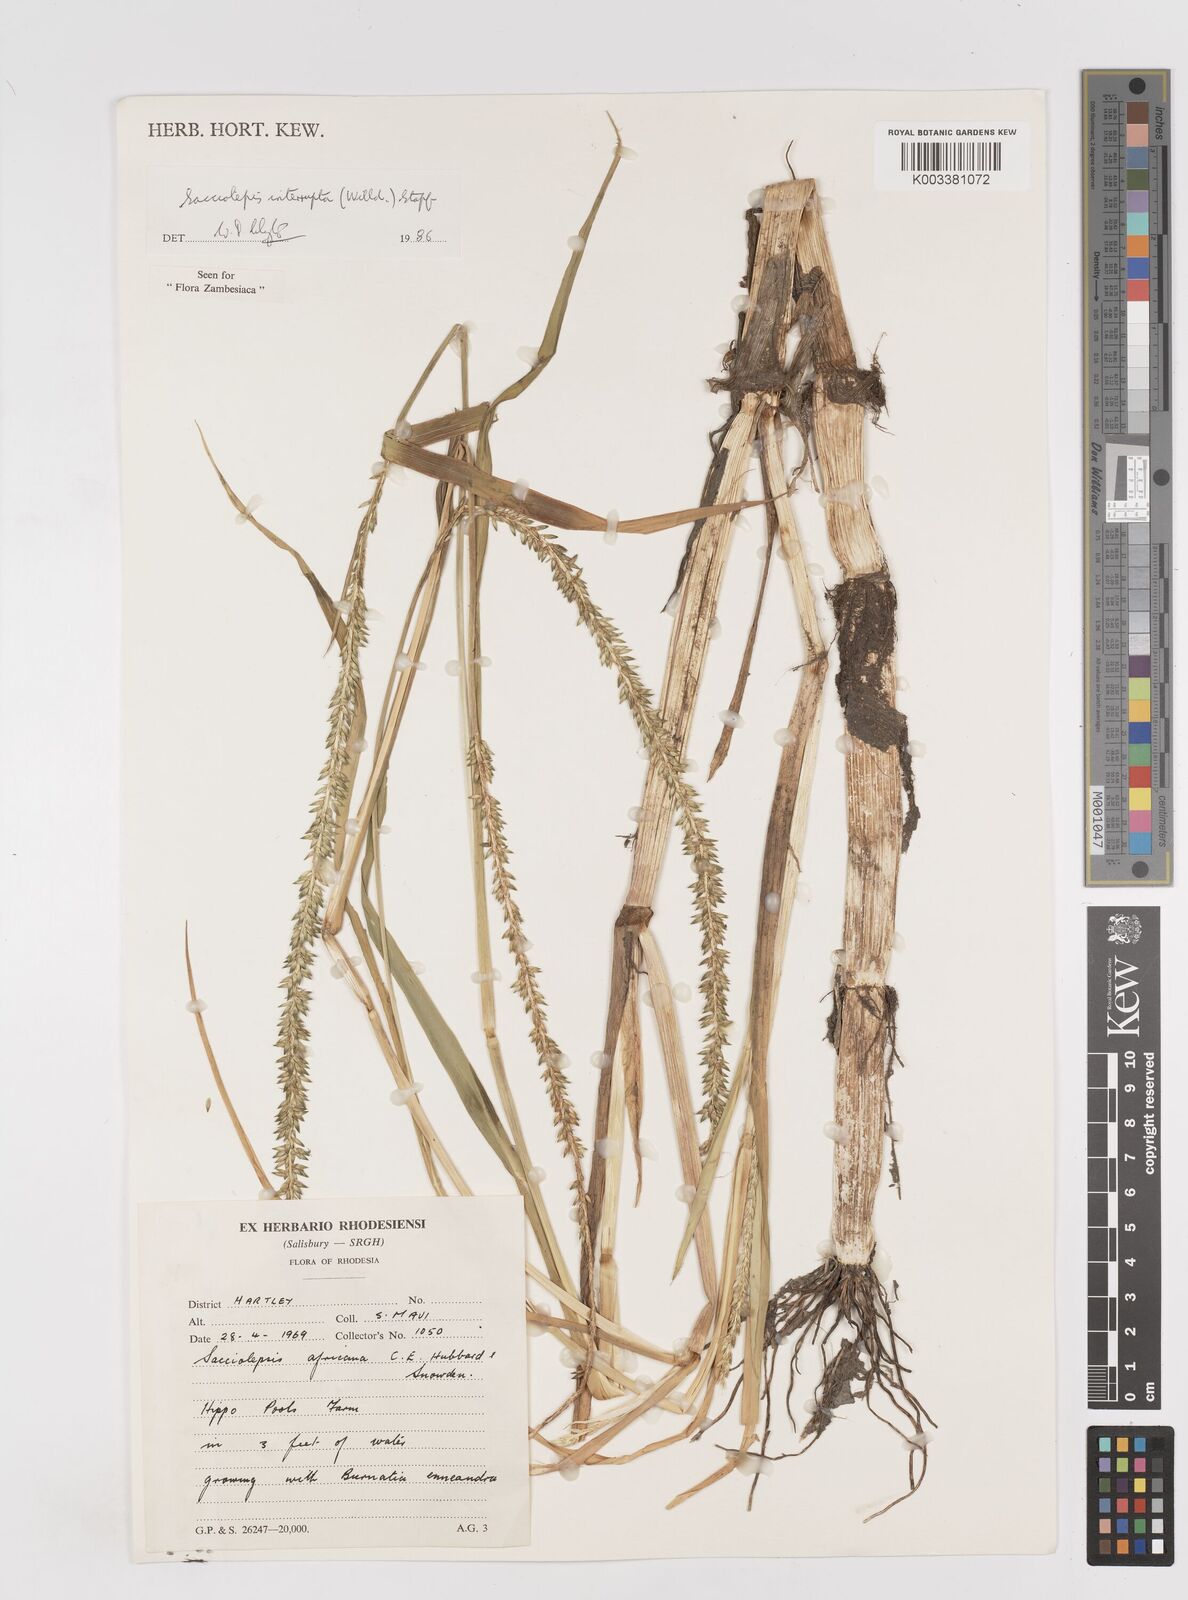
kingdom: Plantae
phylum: Tracheophyta
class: Liliopsida
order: Poales
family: Poaceae
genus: Sacciolepis
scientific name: Sacciolepis interrupta
